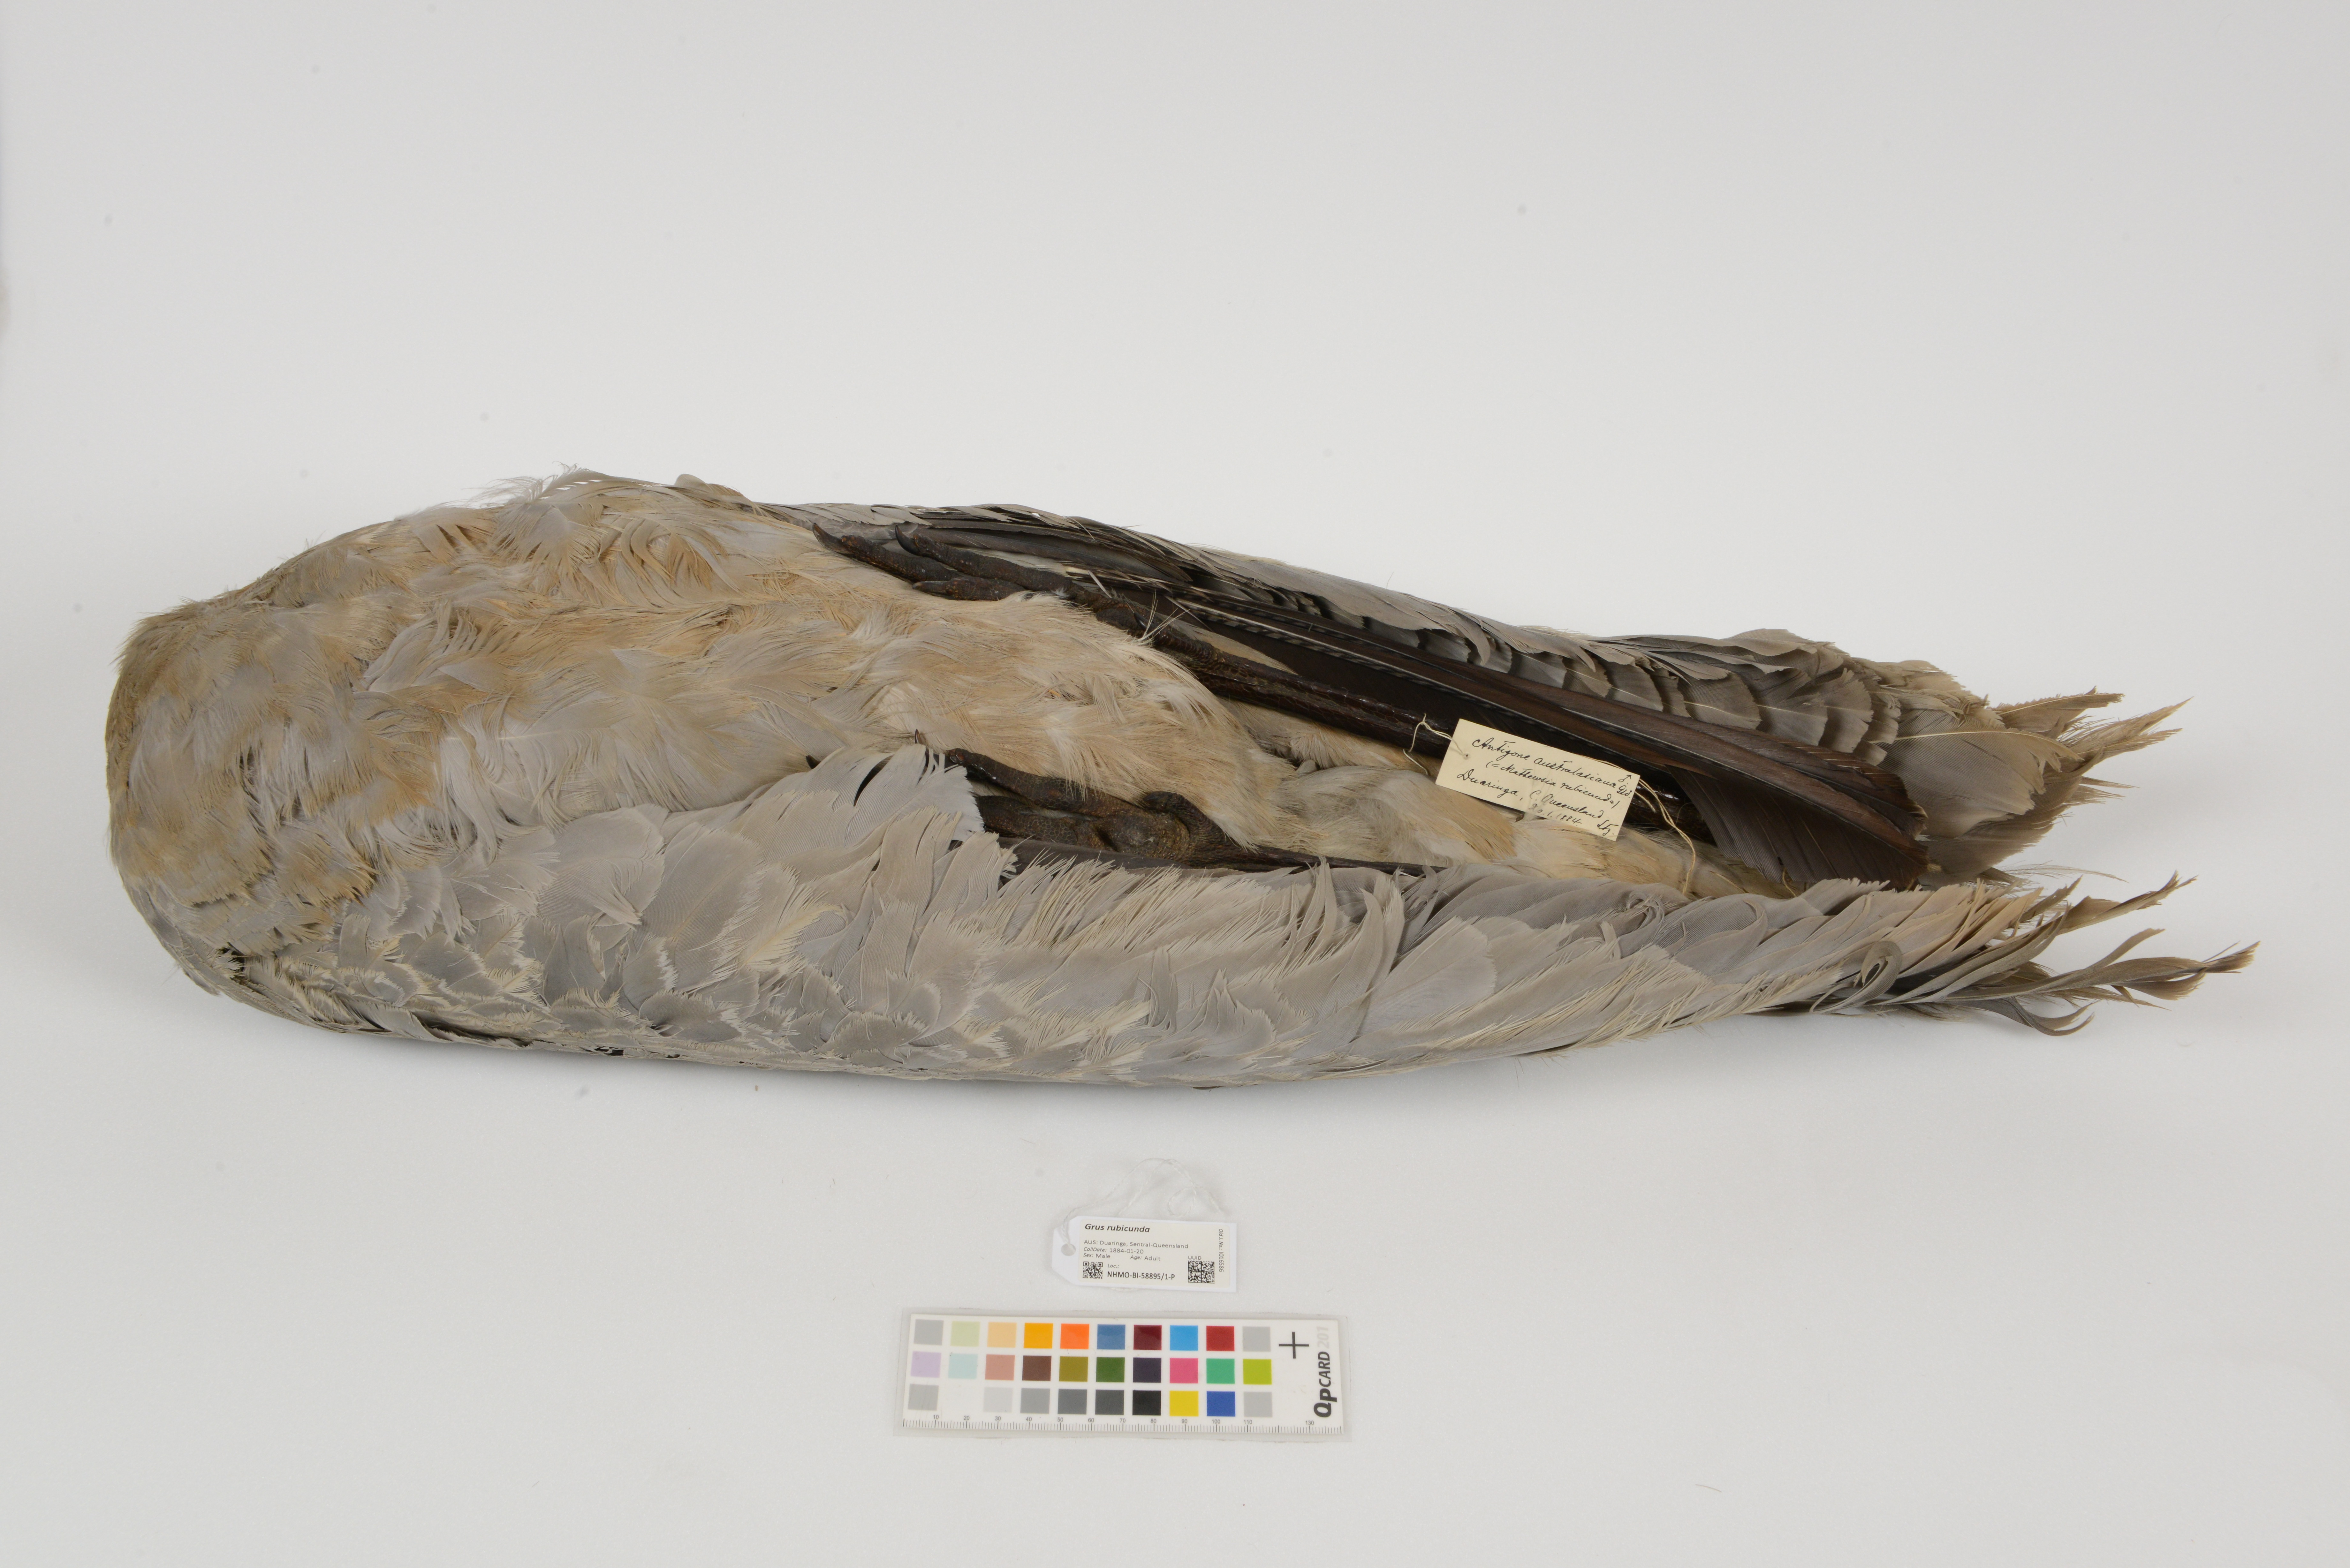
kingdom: Animalia
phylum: Chordata
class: Aves
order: Gruiformes
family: Gruidae
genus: Grus
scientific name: Grus rubicunda
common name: Brolga
